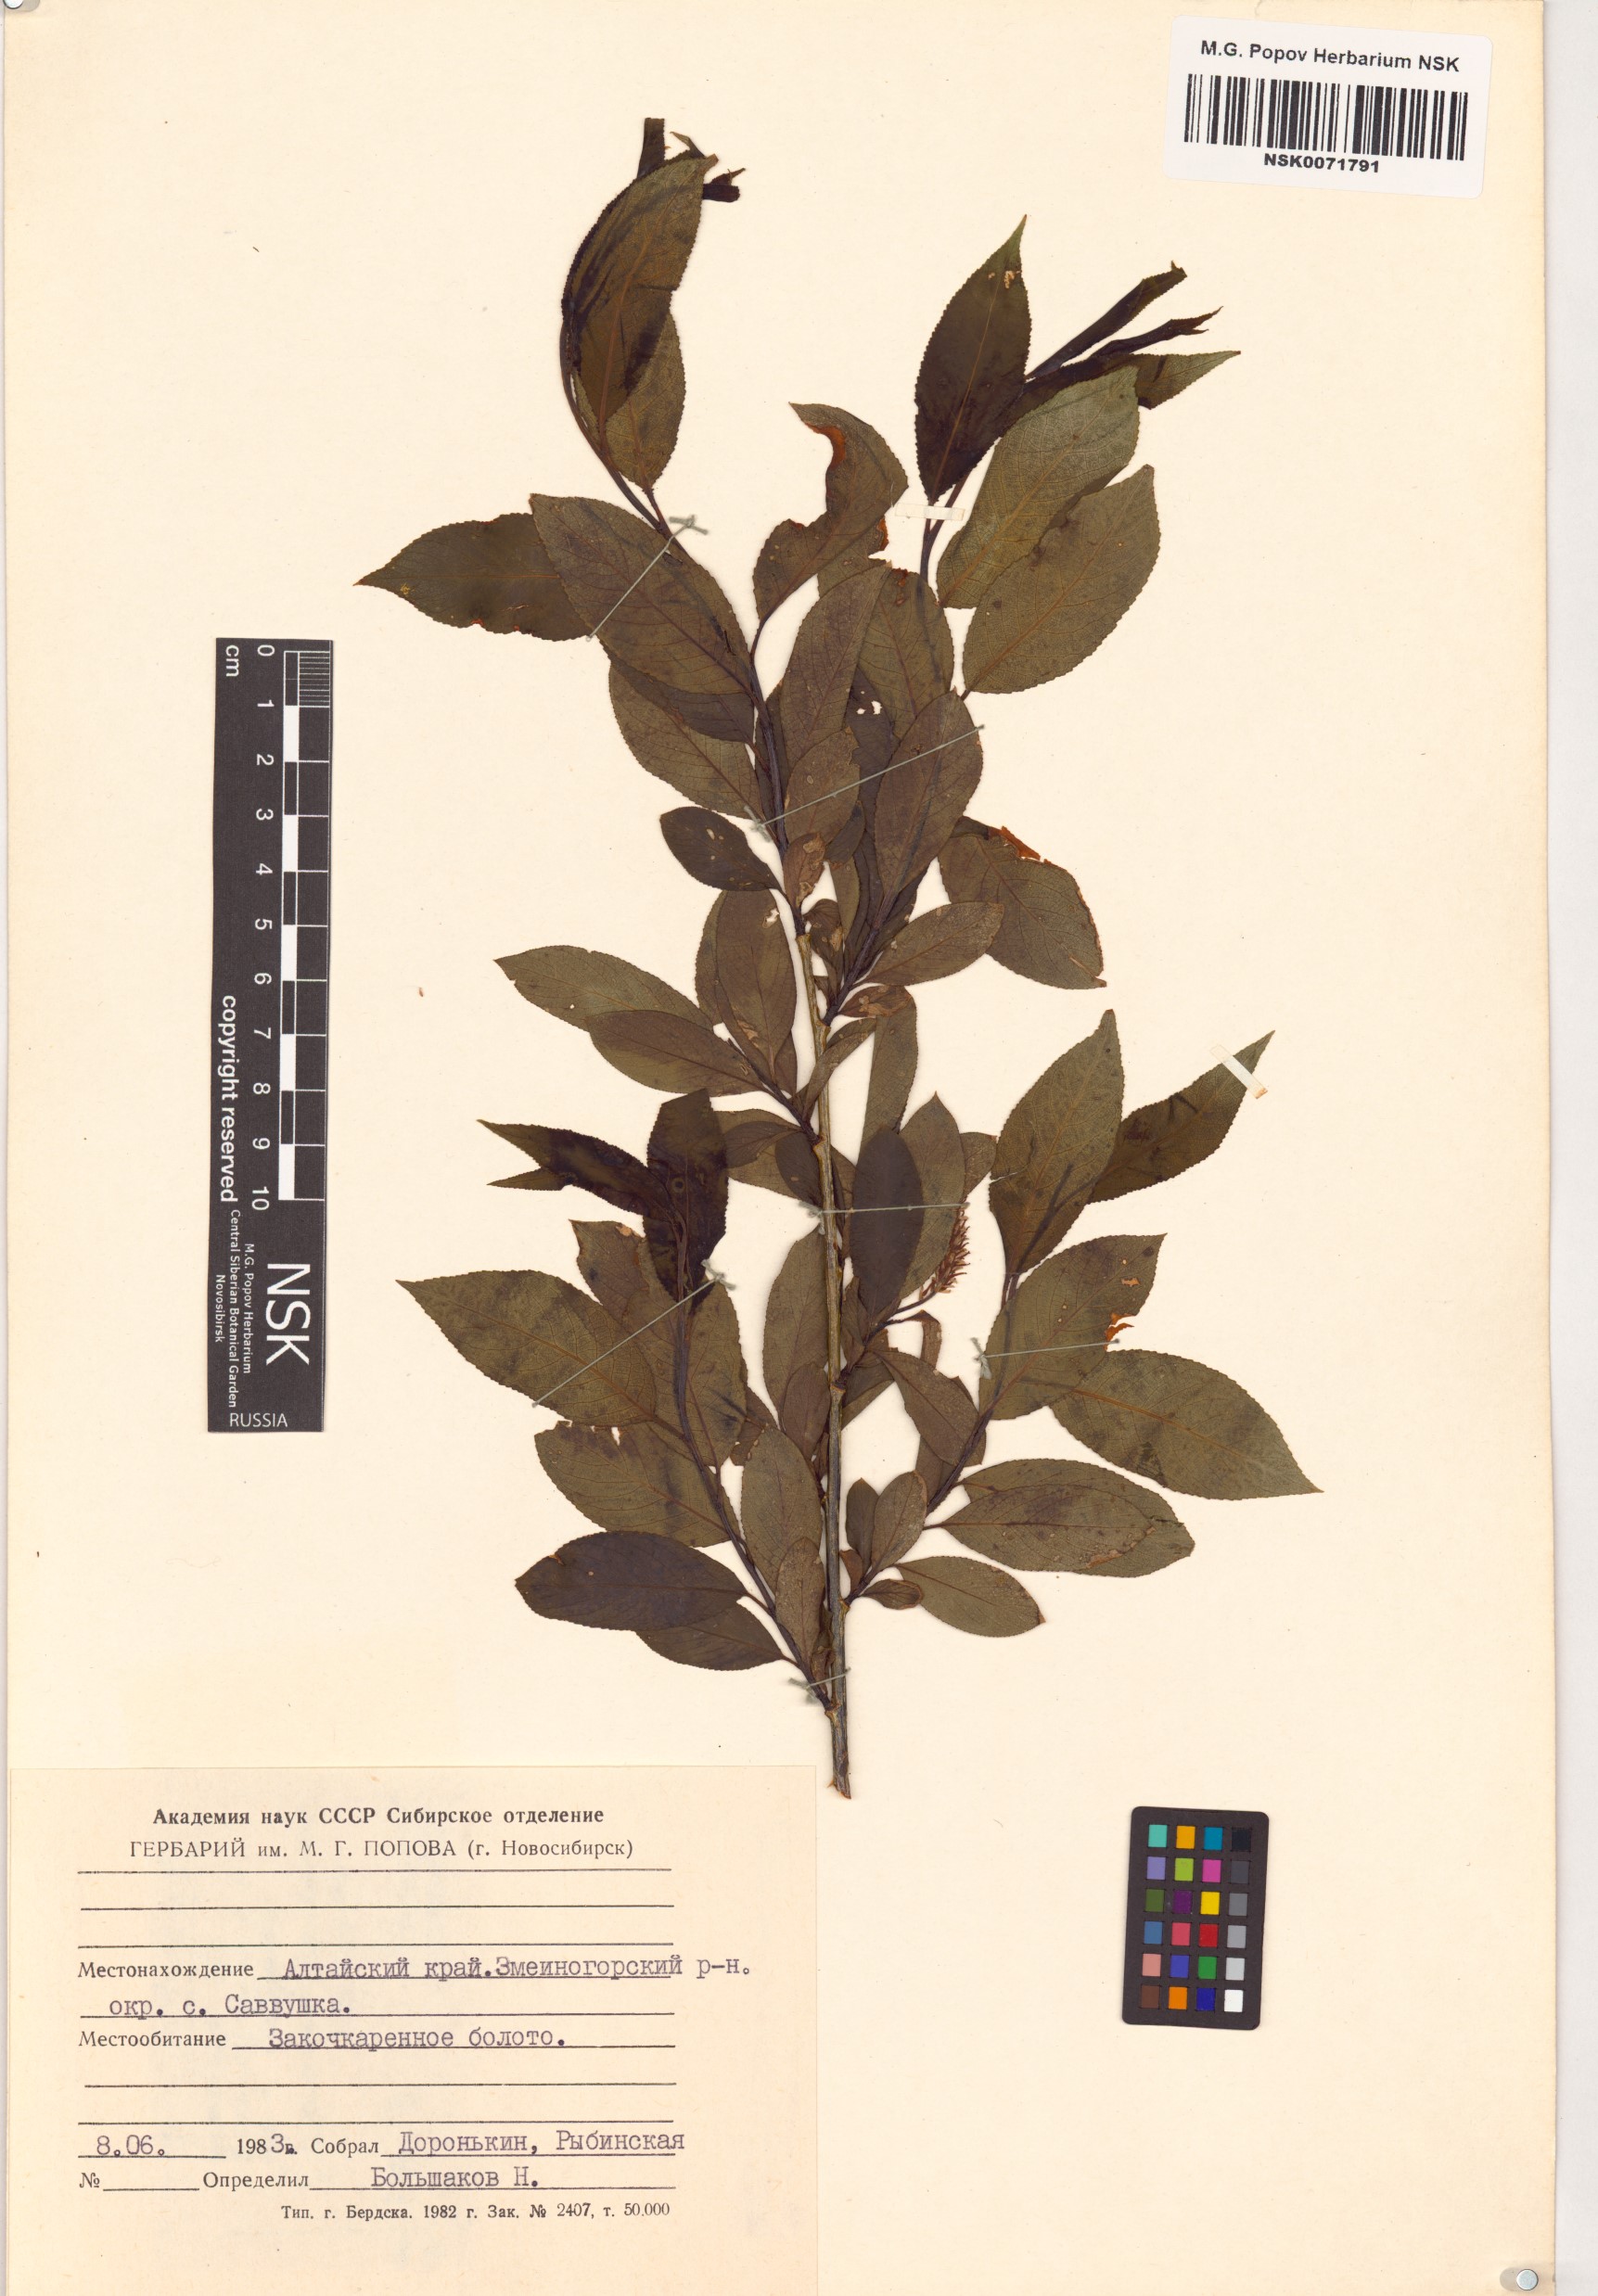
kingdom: Plantae
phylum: Tracheophyta
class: Magnoliopsida
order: Malpighiales
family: Salicaceae
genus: Salix
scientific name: Salix pentandra
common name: Bay willow
